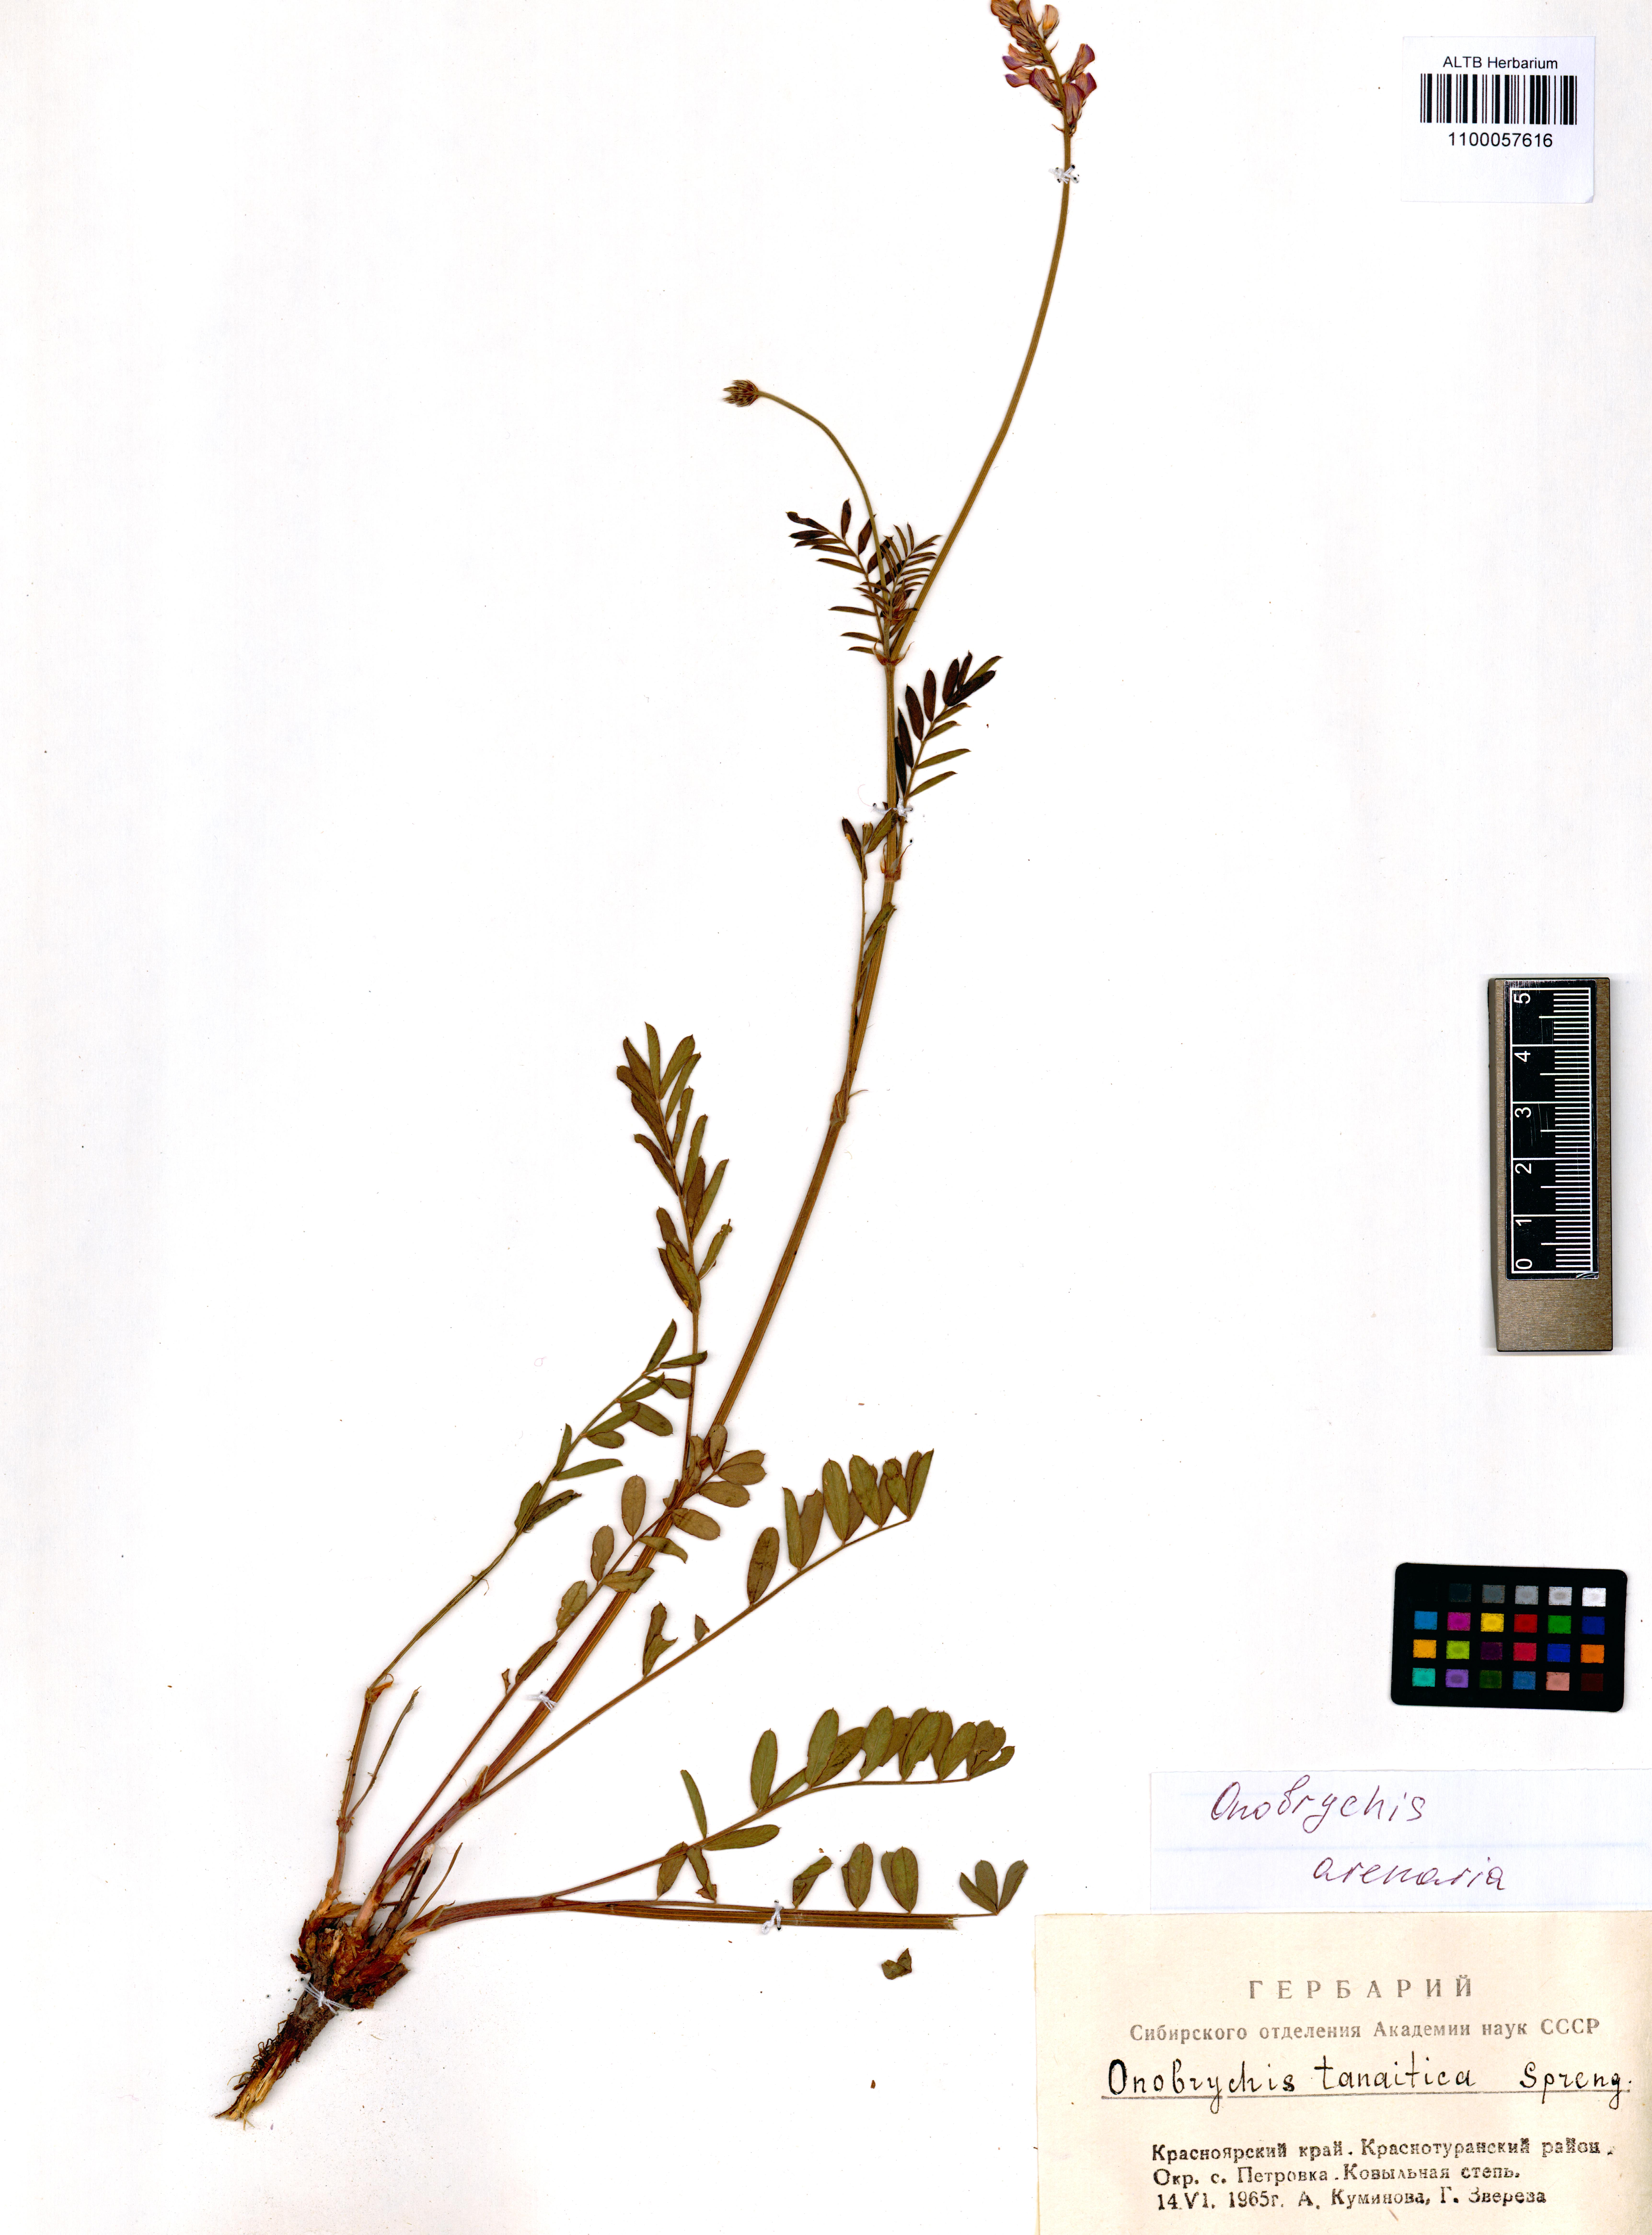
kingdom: Plantae
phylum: Tracheophyta
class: Magnoliopsida
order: Fabales
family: Fabaceae
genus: Onobrychis
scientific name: Onobrychis arenaria
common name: Sand esparcet
